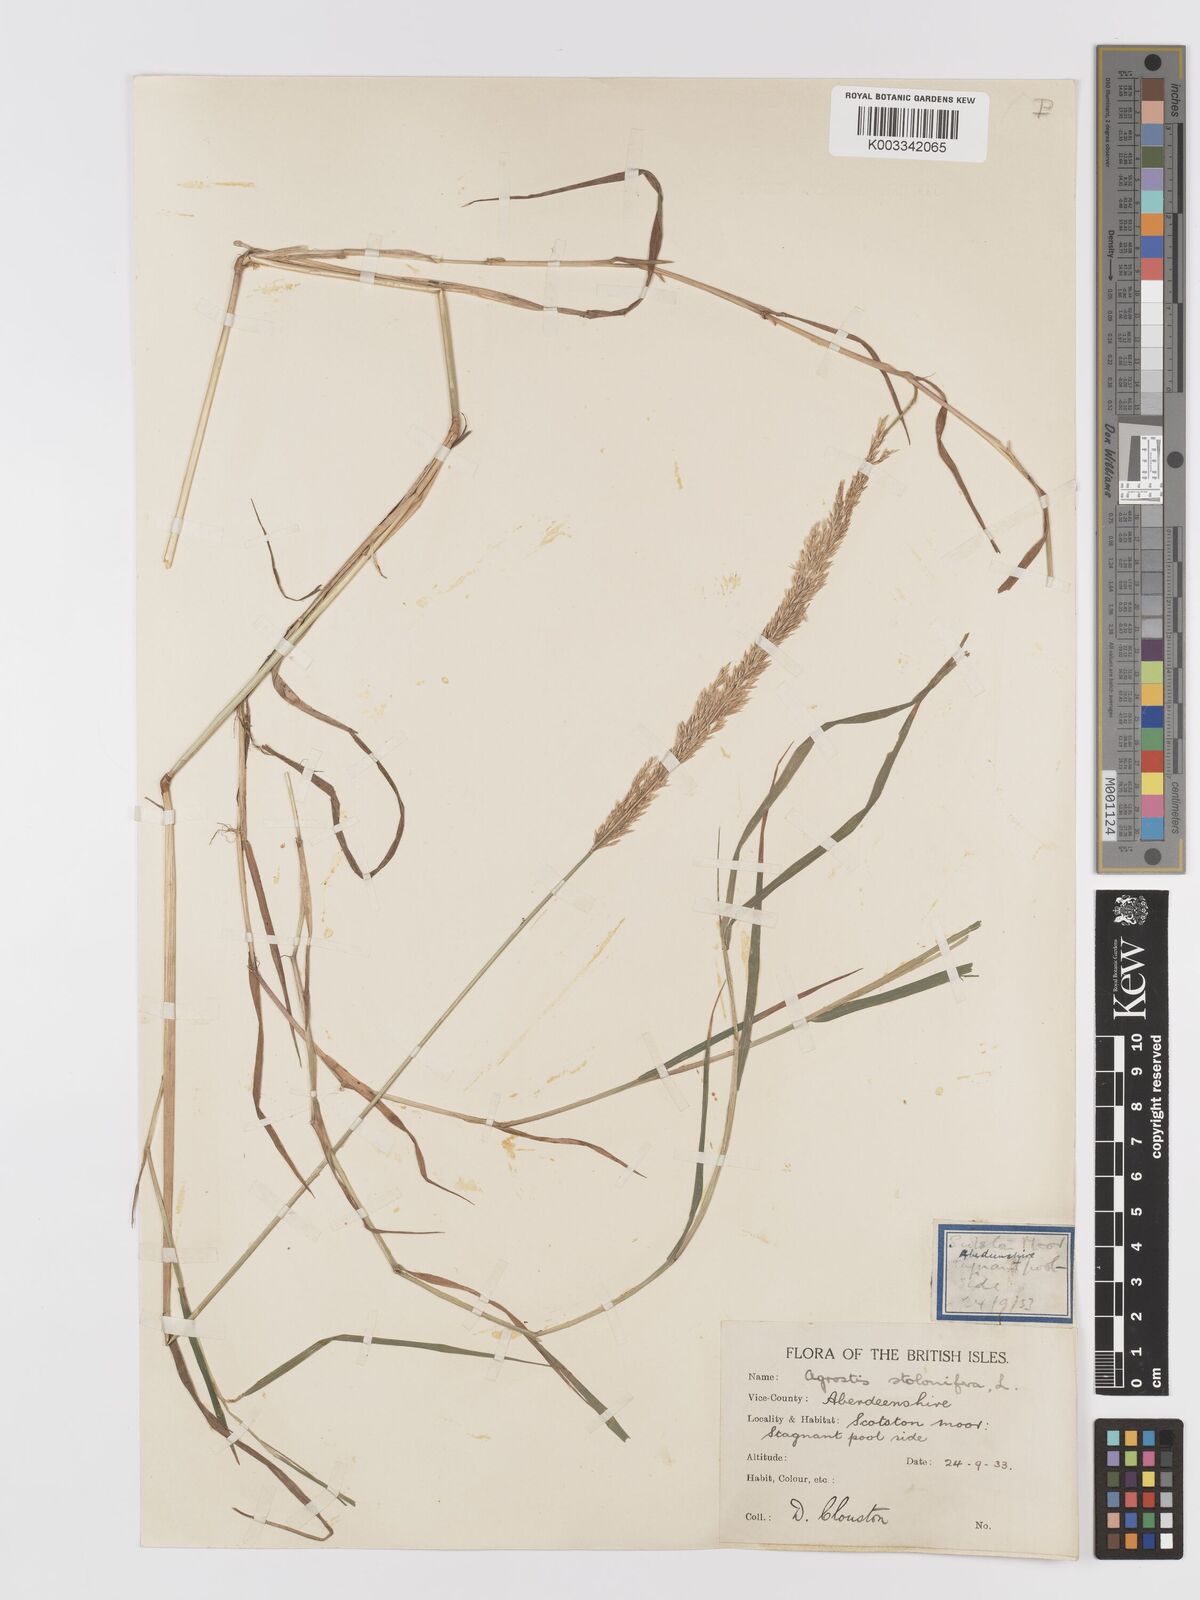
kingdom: Plantae
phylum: Tracheophyta
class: Liliopsida
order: Poales
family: Poaceae
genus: Agrostis
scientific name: Agrostis stolonifera
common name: Creeping bentgrass
